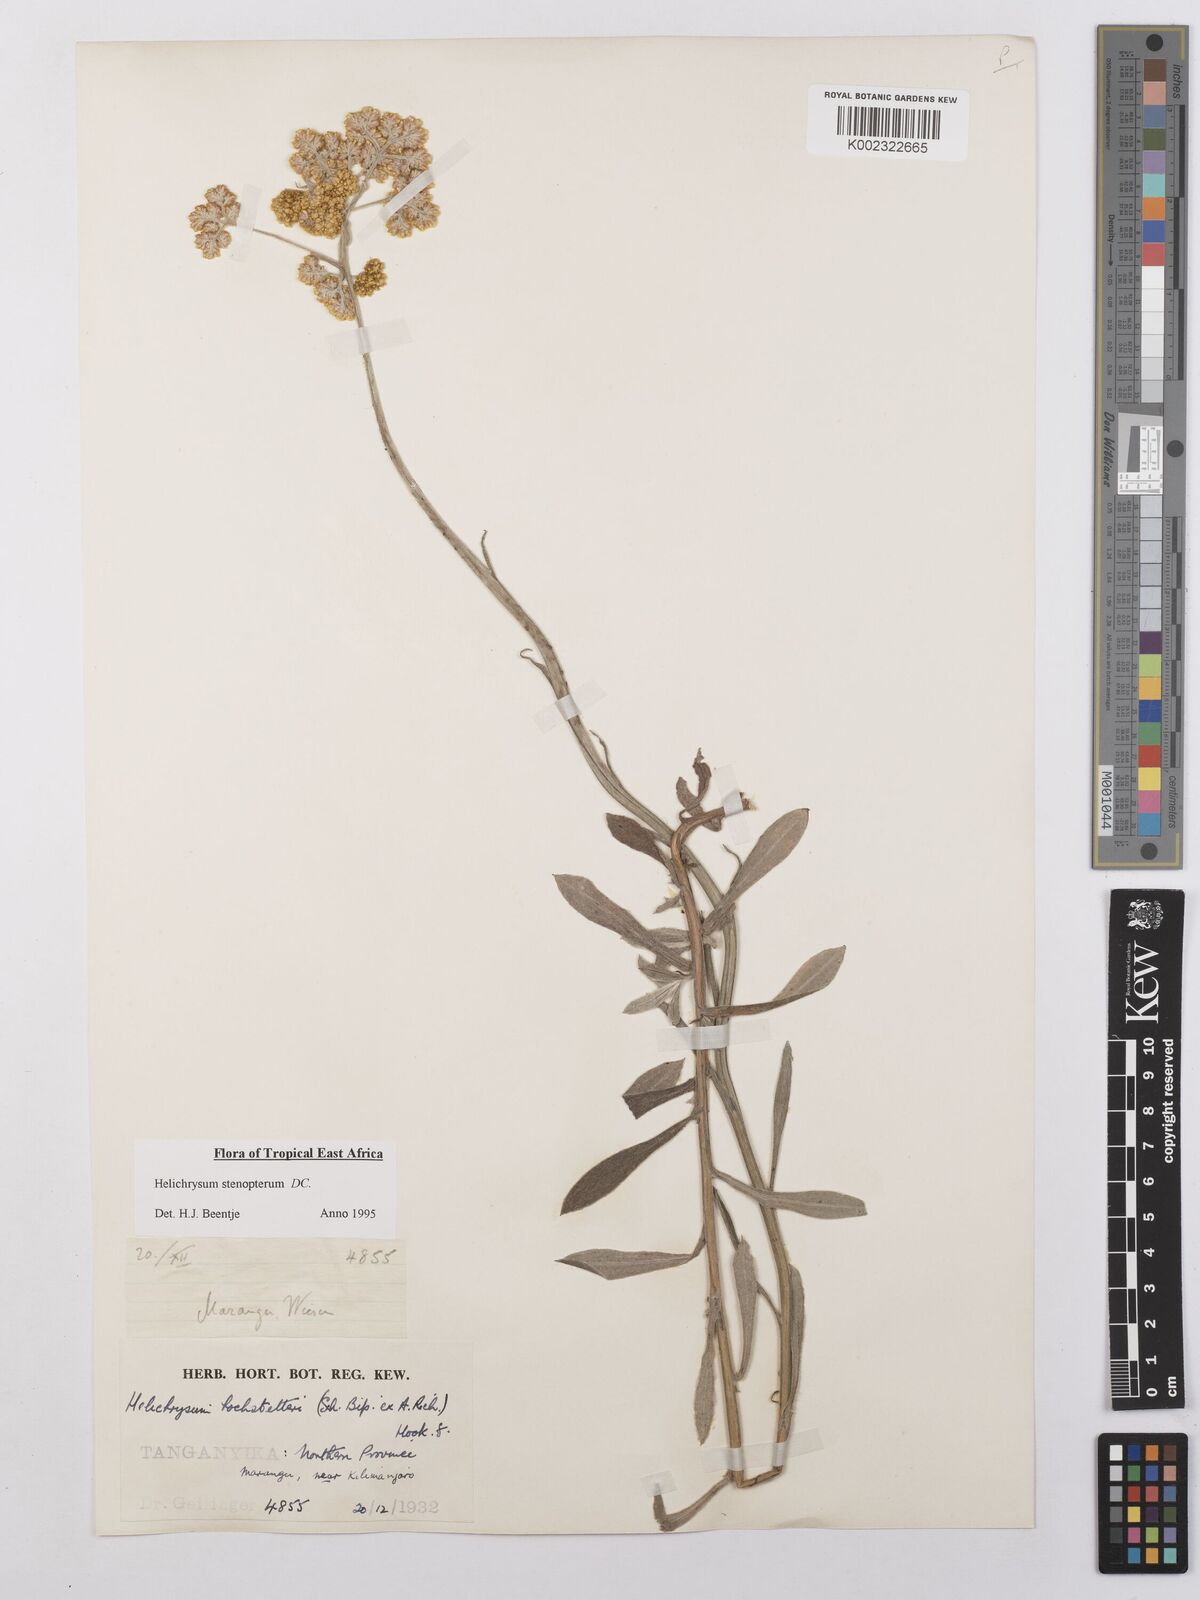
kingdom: Plantae
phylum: Tracheophyta
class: Magnoliopsida
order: Asterales
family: Asteraceae
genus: Helichrysum
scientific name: Helichrysum stenopterum
